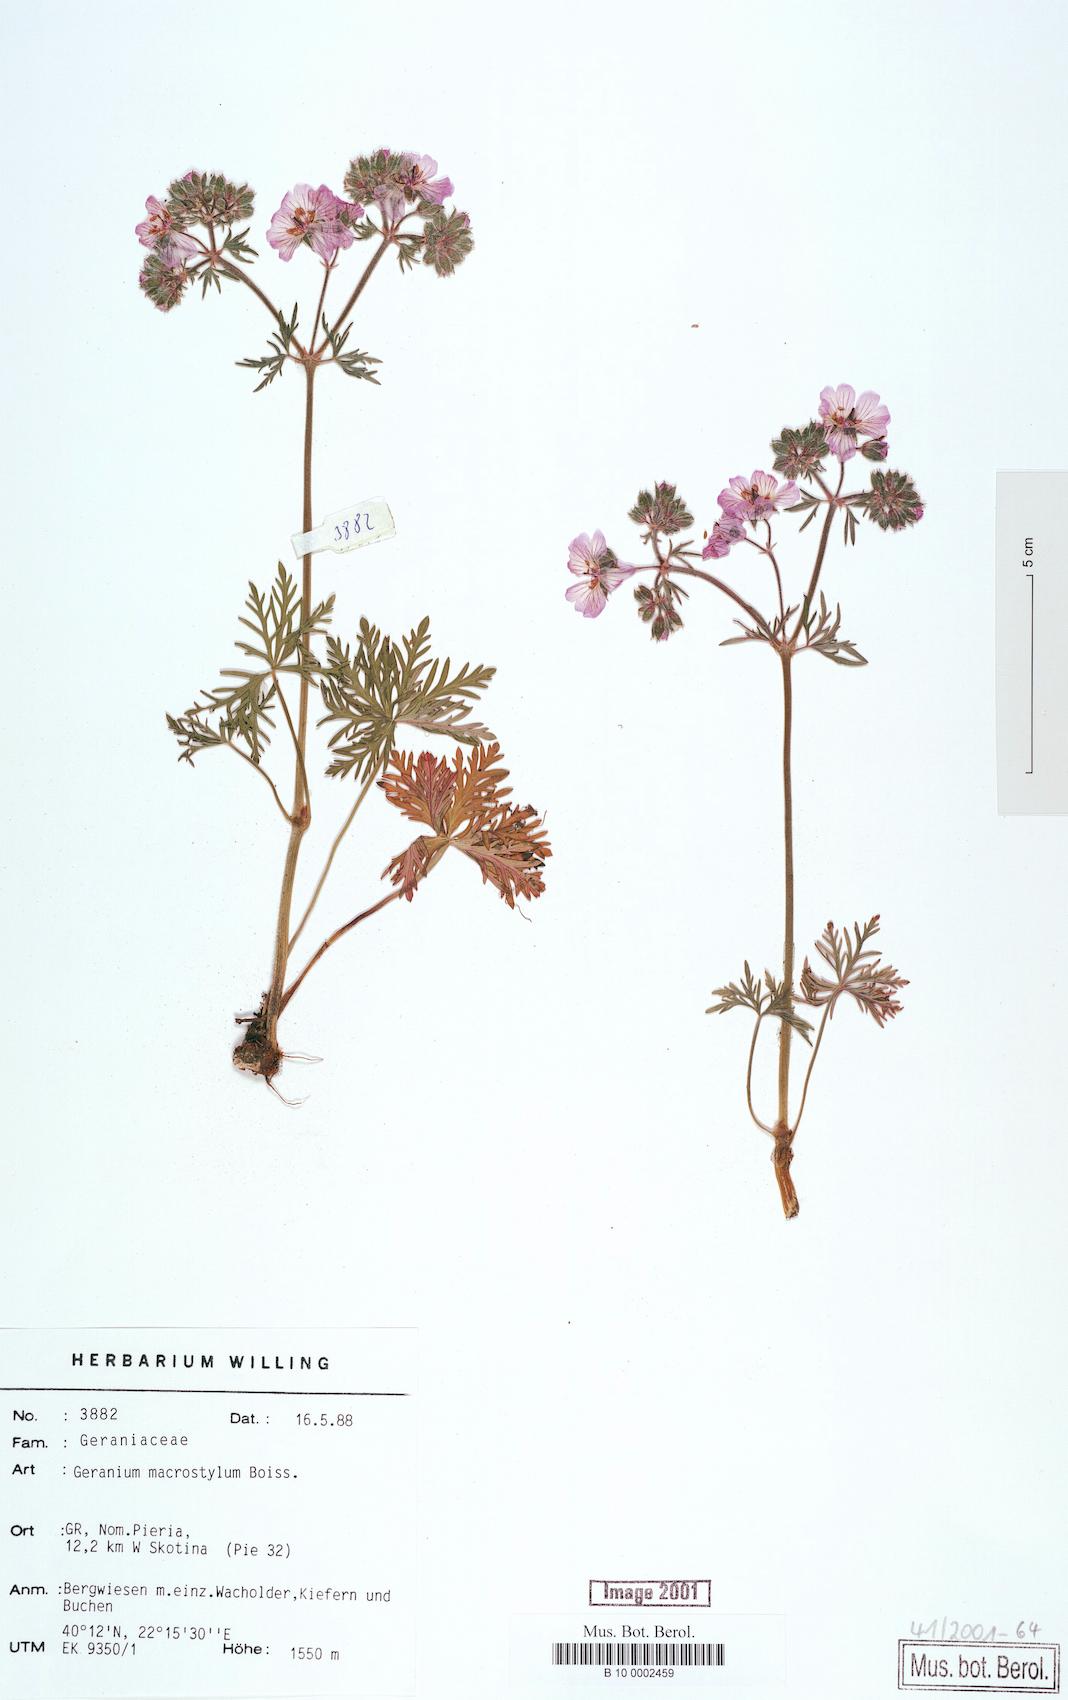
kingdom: Plantae
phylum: Tracheophyta
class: Magnoliopsida
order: Geraniales
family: Geraniaceae
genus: Geranium
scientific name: Geranium macrostylum
